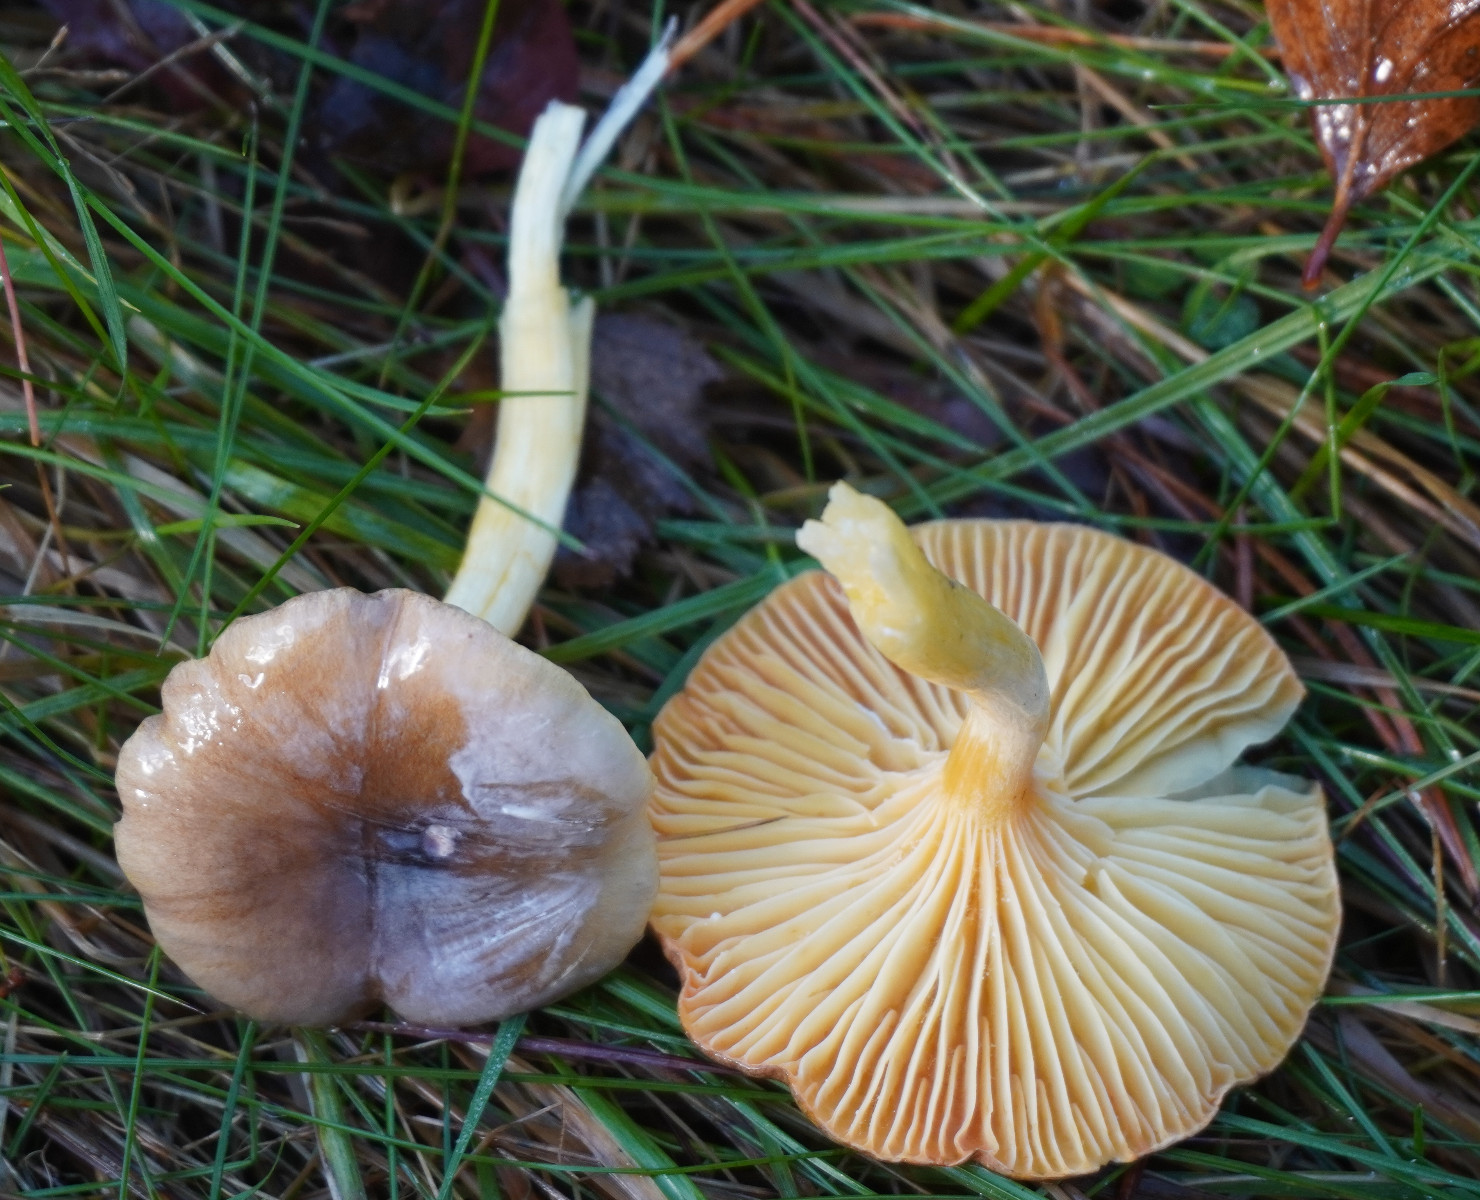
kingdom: Fungi
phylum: Basidiomycota
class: Agaricomycetes
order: Agaricales
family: Hygrophoraceae
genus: Hygrophorus
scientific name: Hygrophorus hypothejus
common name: frost-sneglehat
